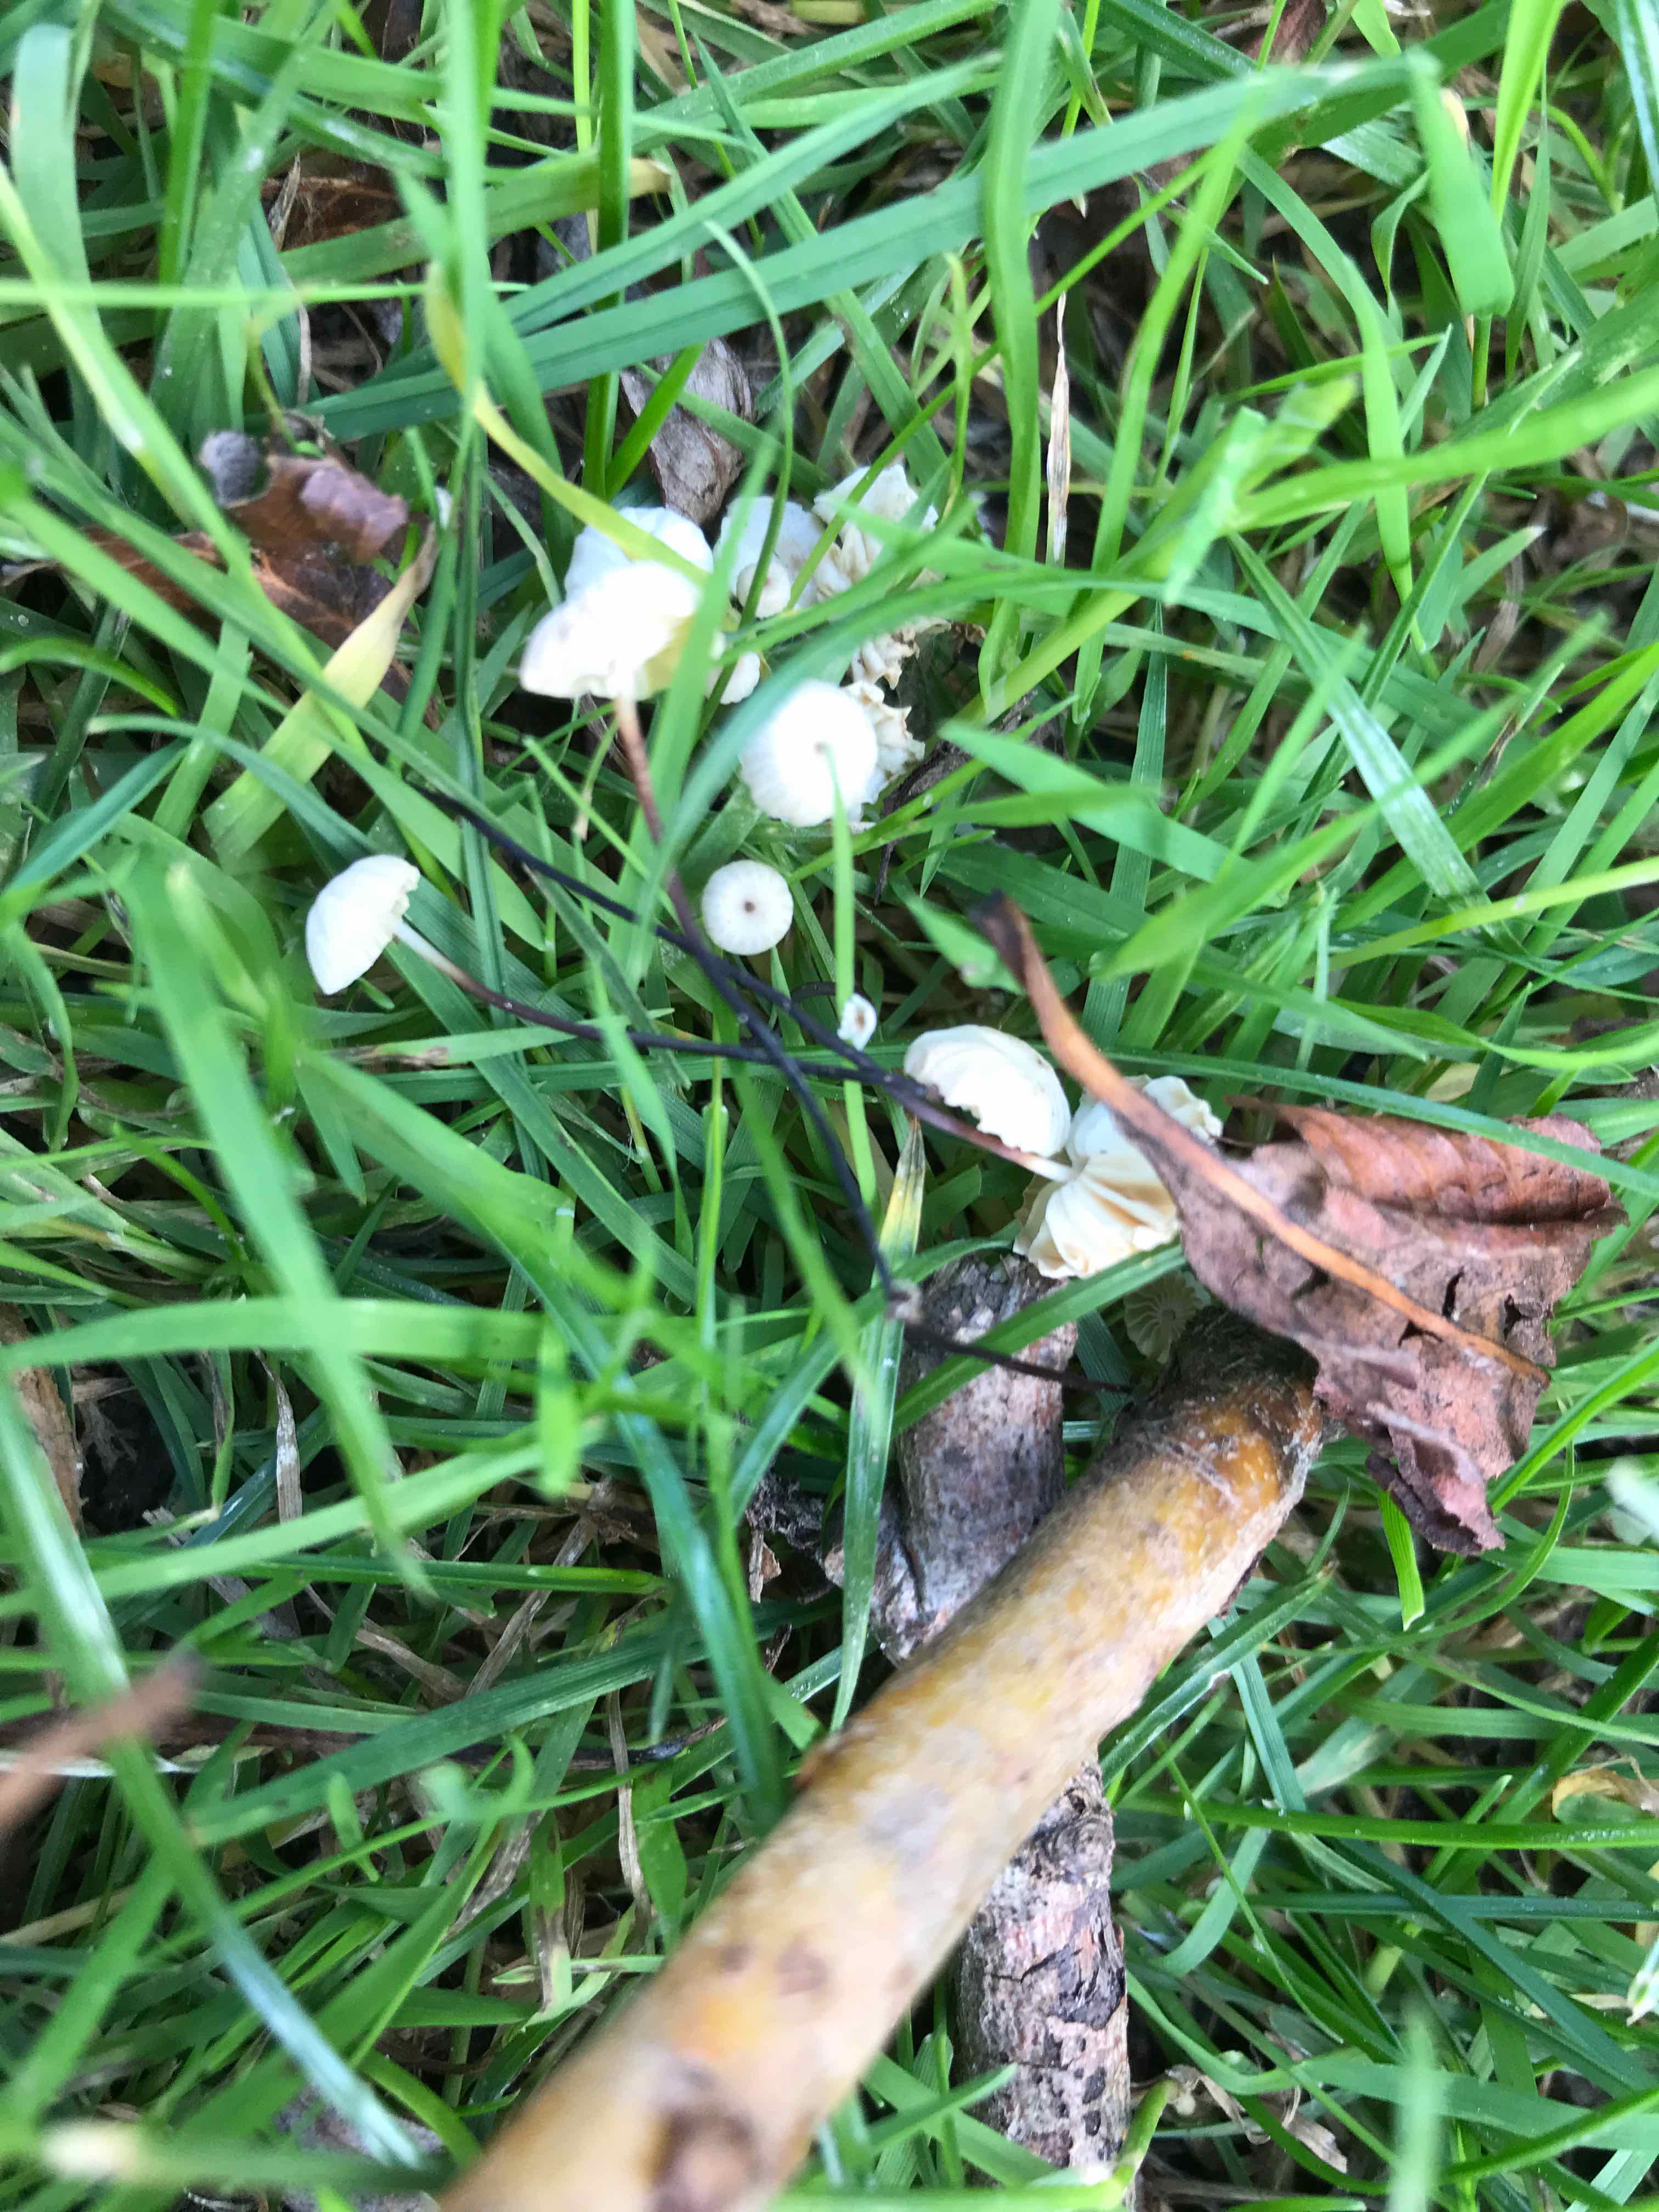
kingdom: Fungi
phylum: Basidiomycota
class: Agaricomycetes
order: Agaricales
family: Marasmiaceae
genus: Marasmius
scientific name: Marasmius rotula
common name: hjul-bruskhat
